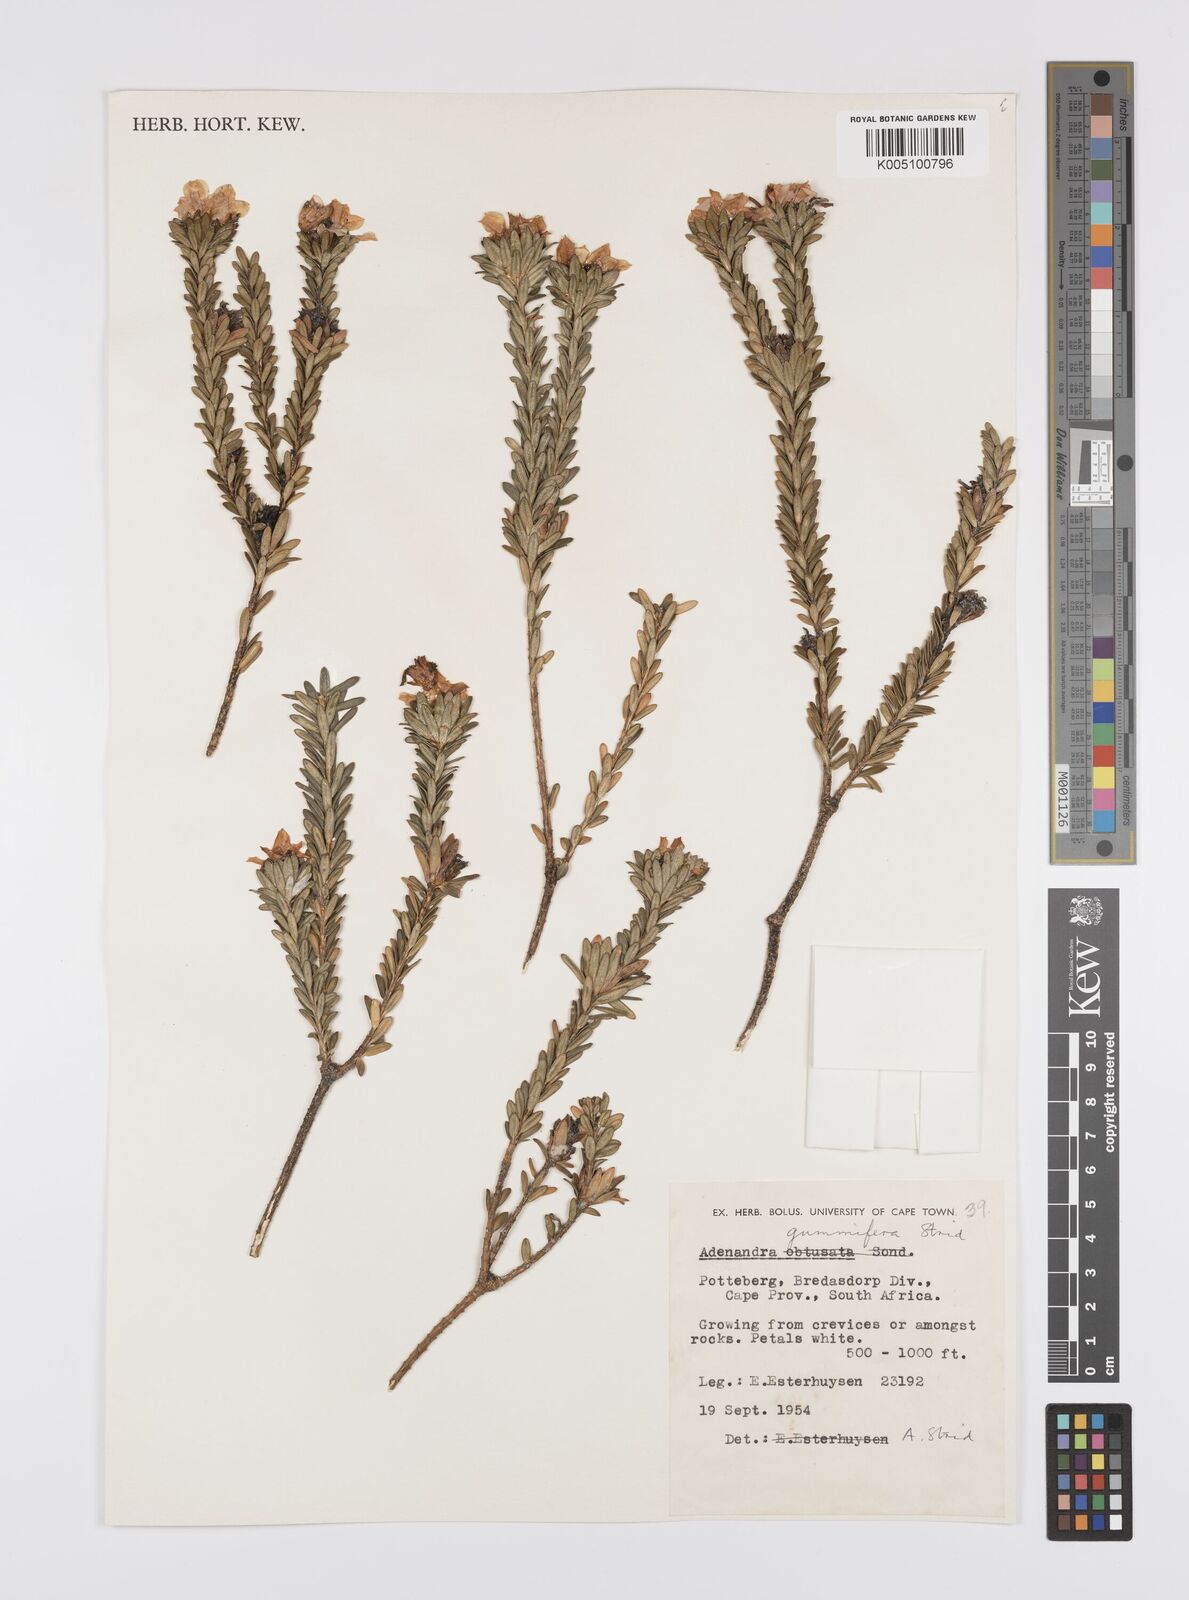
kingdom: Plantae
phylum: Tracheophyta
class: Magnoliopsida
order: Sapindales
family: Rutaceae
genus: Adenandra
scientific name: Adenandra gummifera
